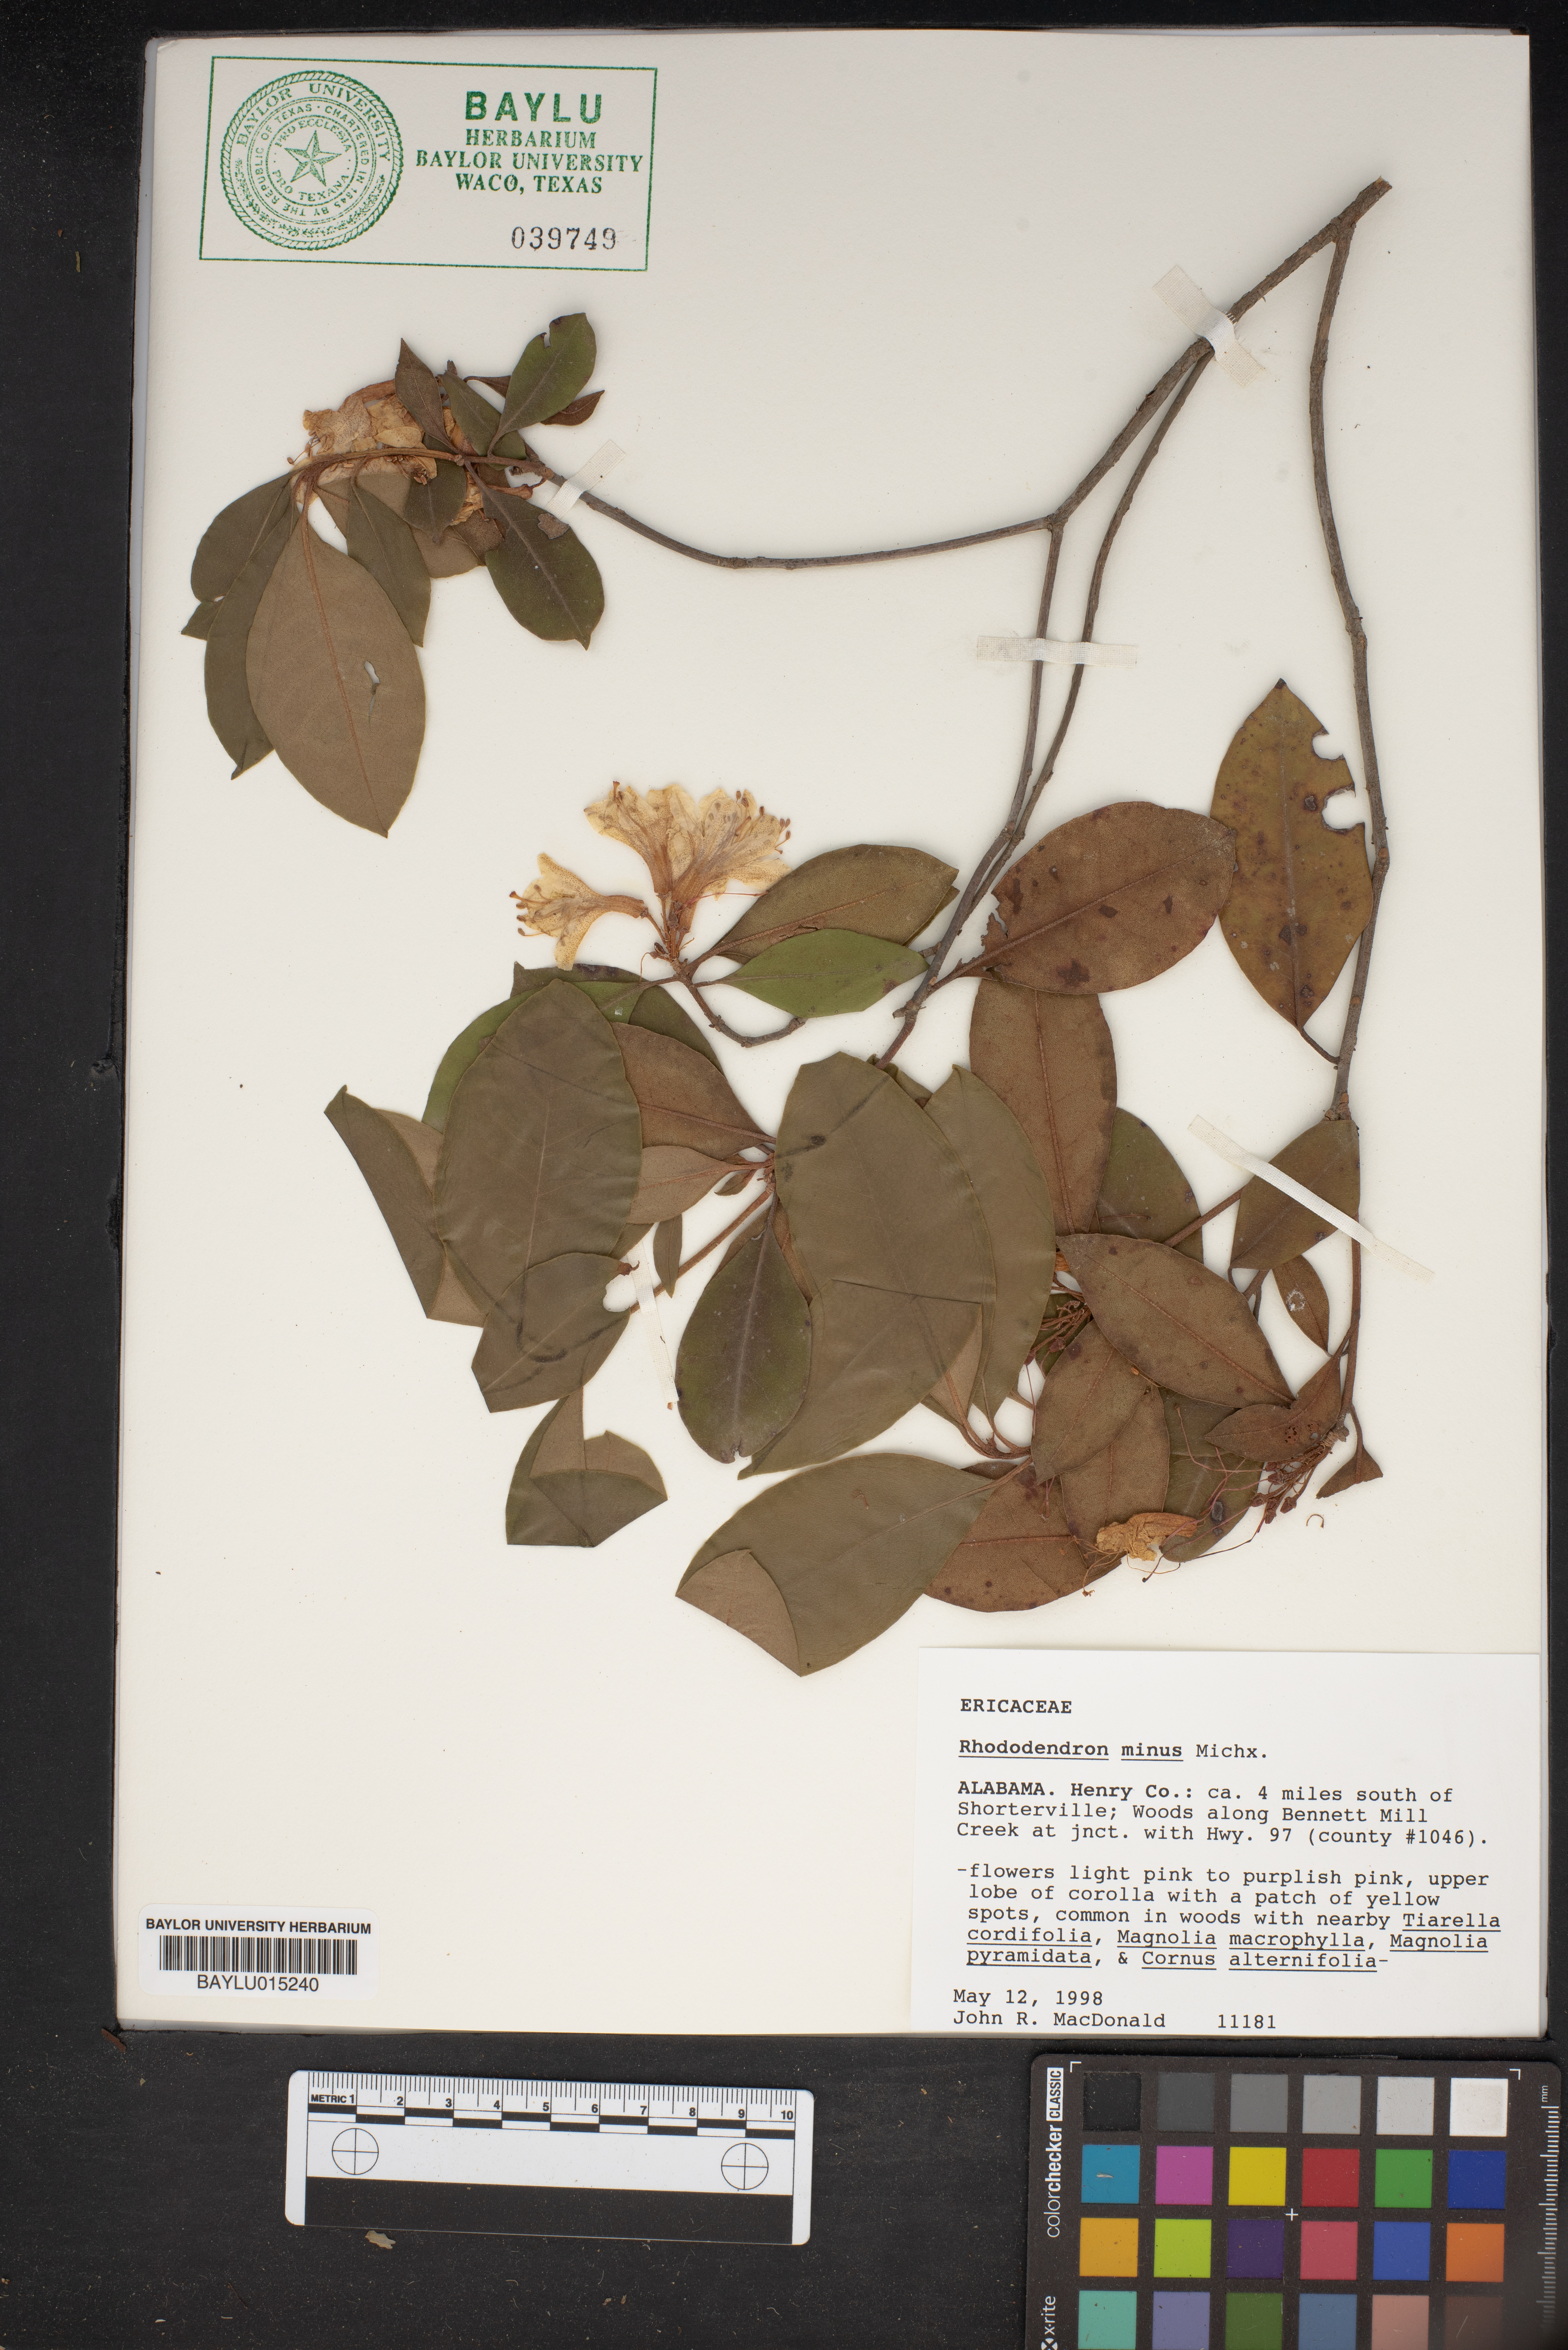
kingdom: Plantae
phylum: Tracheophyta
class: Magnoliopsida
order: Ericales
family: Ericaceae
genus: Rhododendron
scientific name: Rhododendron minus
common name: Piedmont rhododendron
